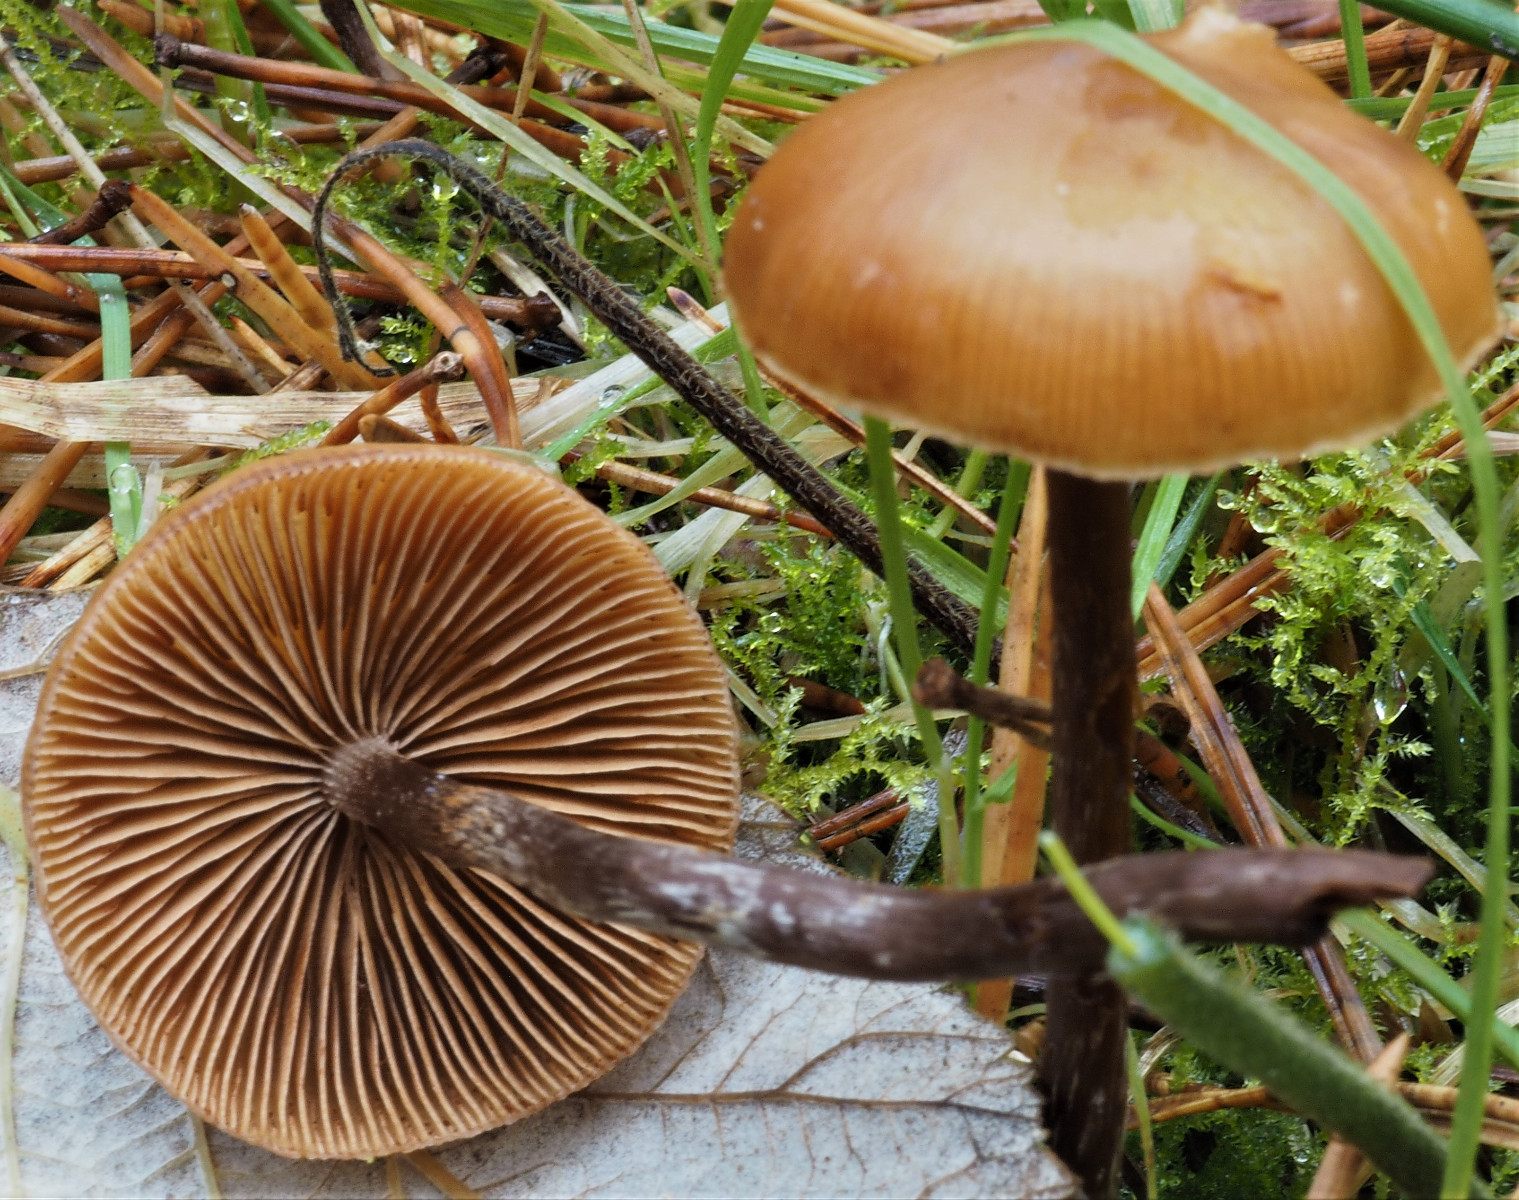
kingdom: Fungi
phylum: Basidiomycota
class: Agaricomycetes
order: Agaricales
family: Hymenogastraceae
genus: Galerina
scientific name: Galerina marginata
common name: randbæltet hjelmhat
